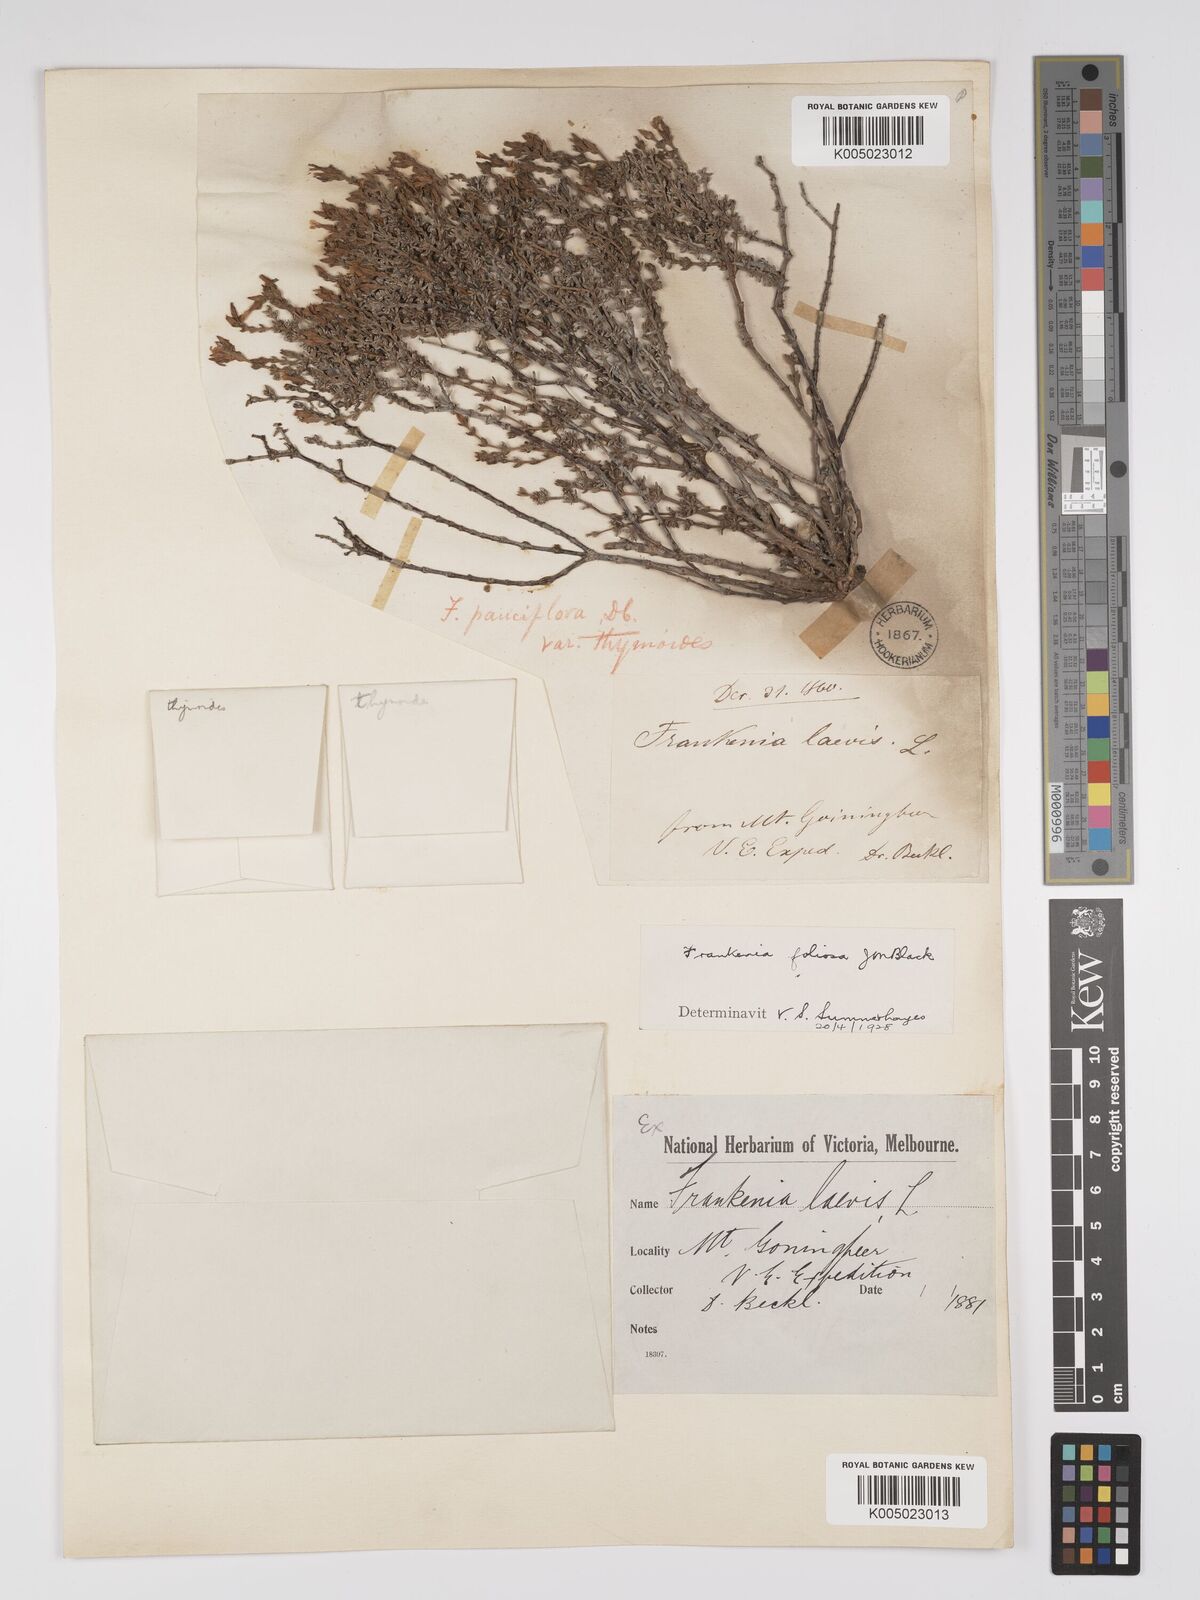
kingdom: Plantae
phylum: Tracheophyta
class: Magnoliopsida
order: Caryophyllales
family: Frankeniaceae
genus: Frankenia
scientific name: Frankenia foliosa
